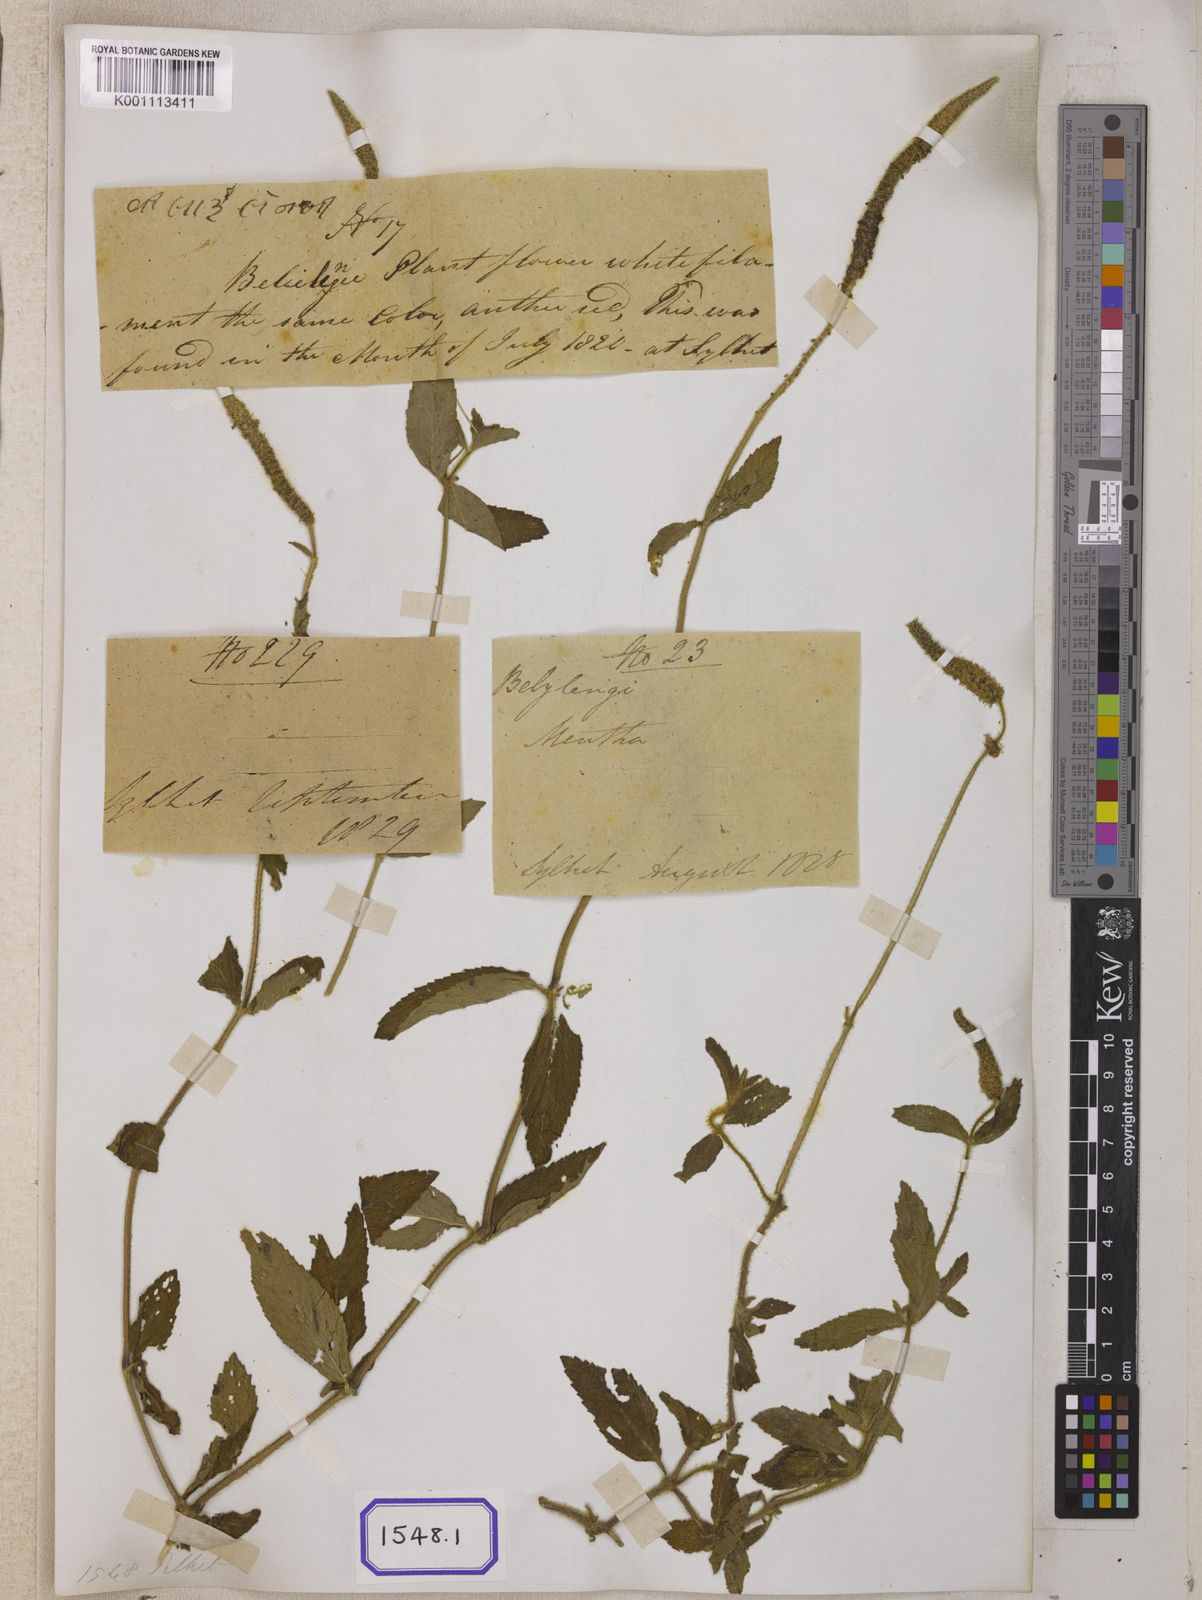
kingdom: Plantae
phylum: Tracheophyta
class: Magnoliopsida
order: Lamiales
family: Lamiaceae
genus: Pogostemon
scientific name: Pogostemon auricularius
